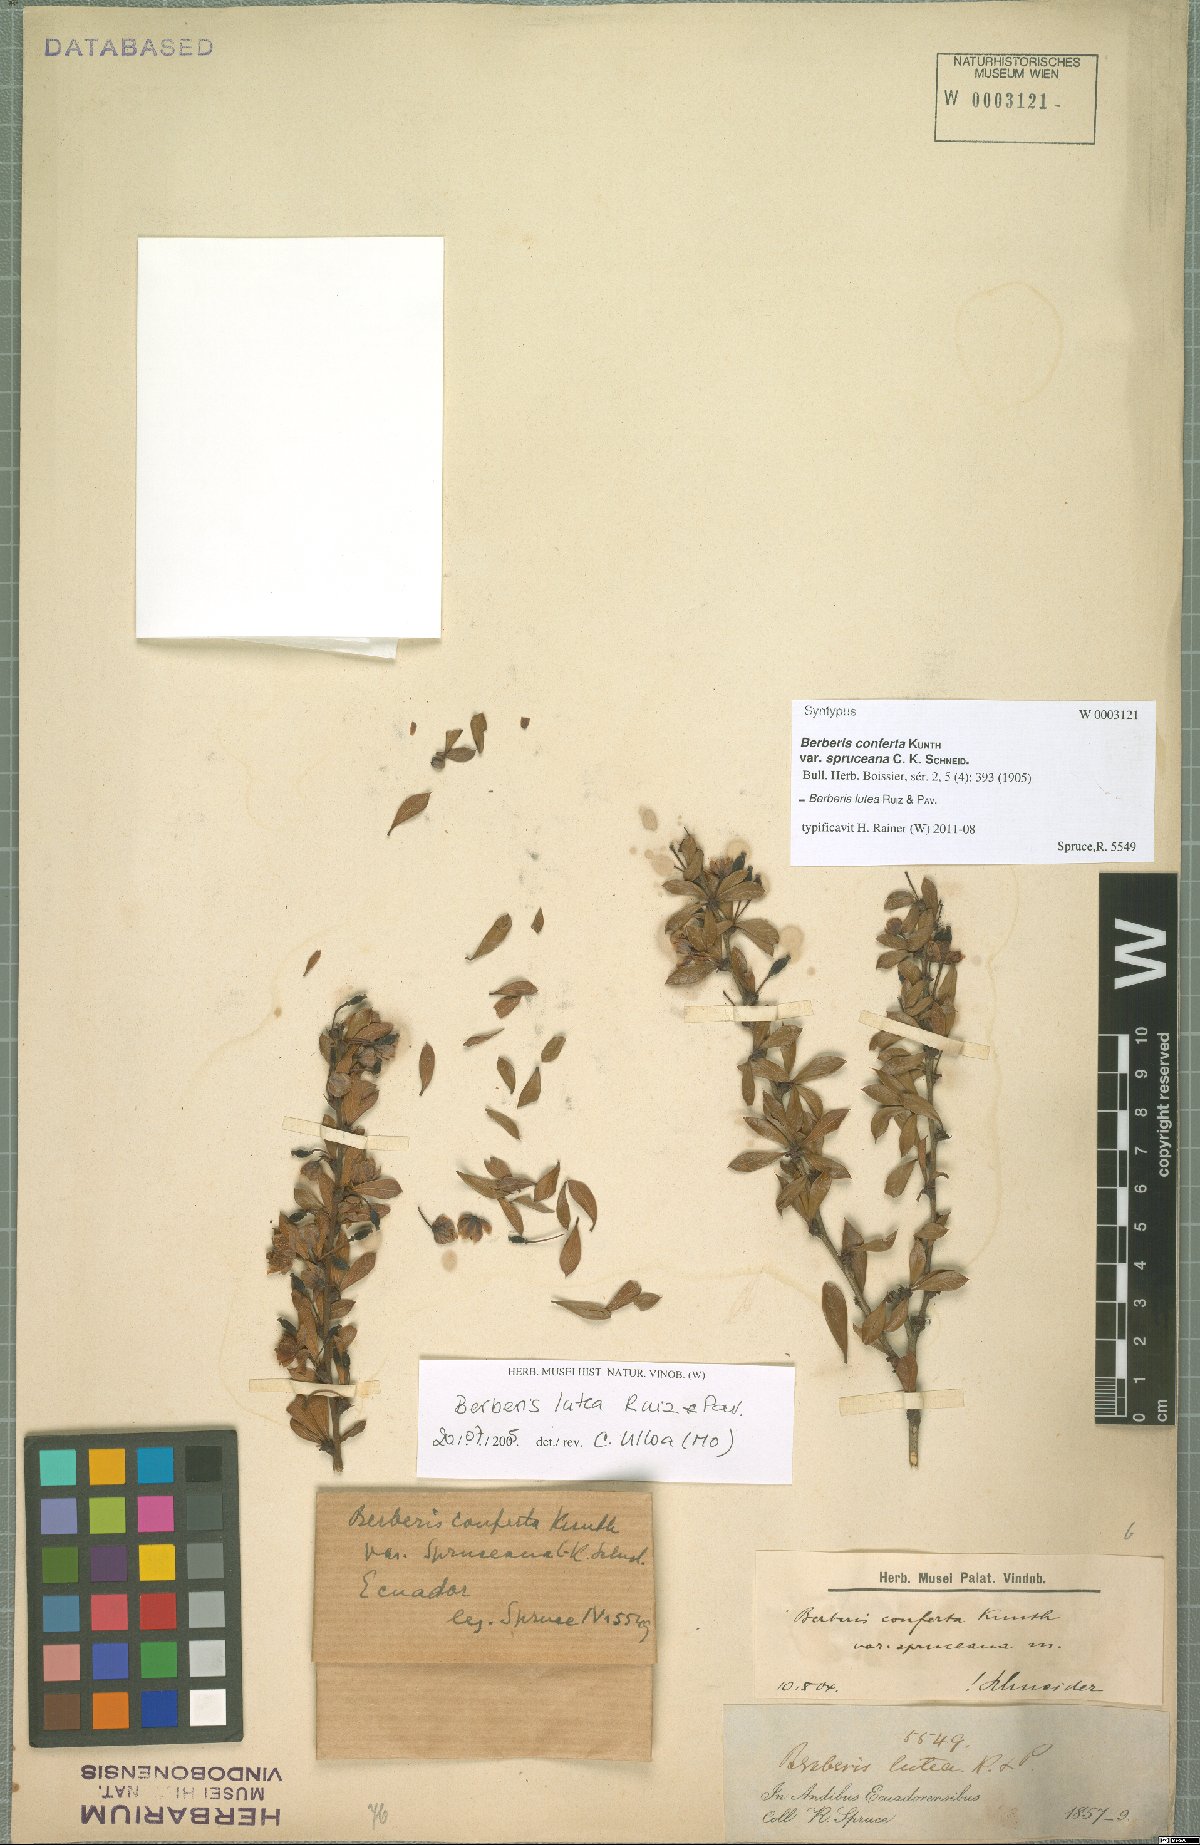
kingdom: Plantae
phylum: Tracheophyta
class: Magnoliopsida
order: Ranunculales
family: Berberidaceae
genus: Berberis
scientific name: Berberis lutea
